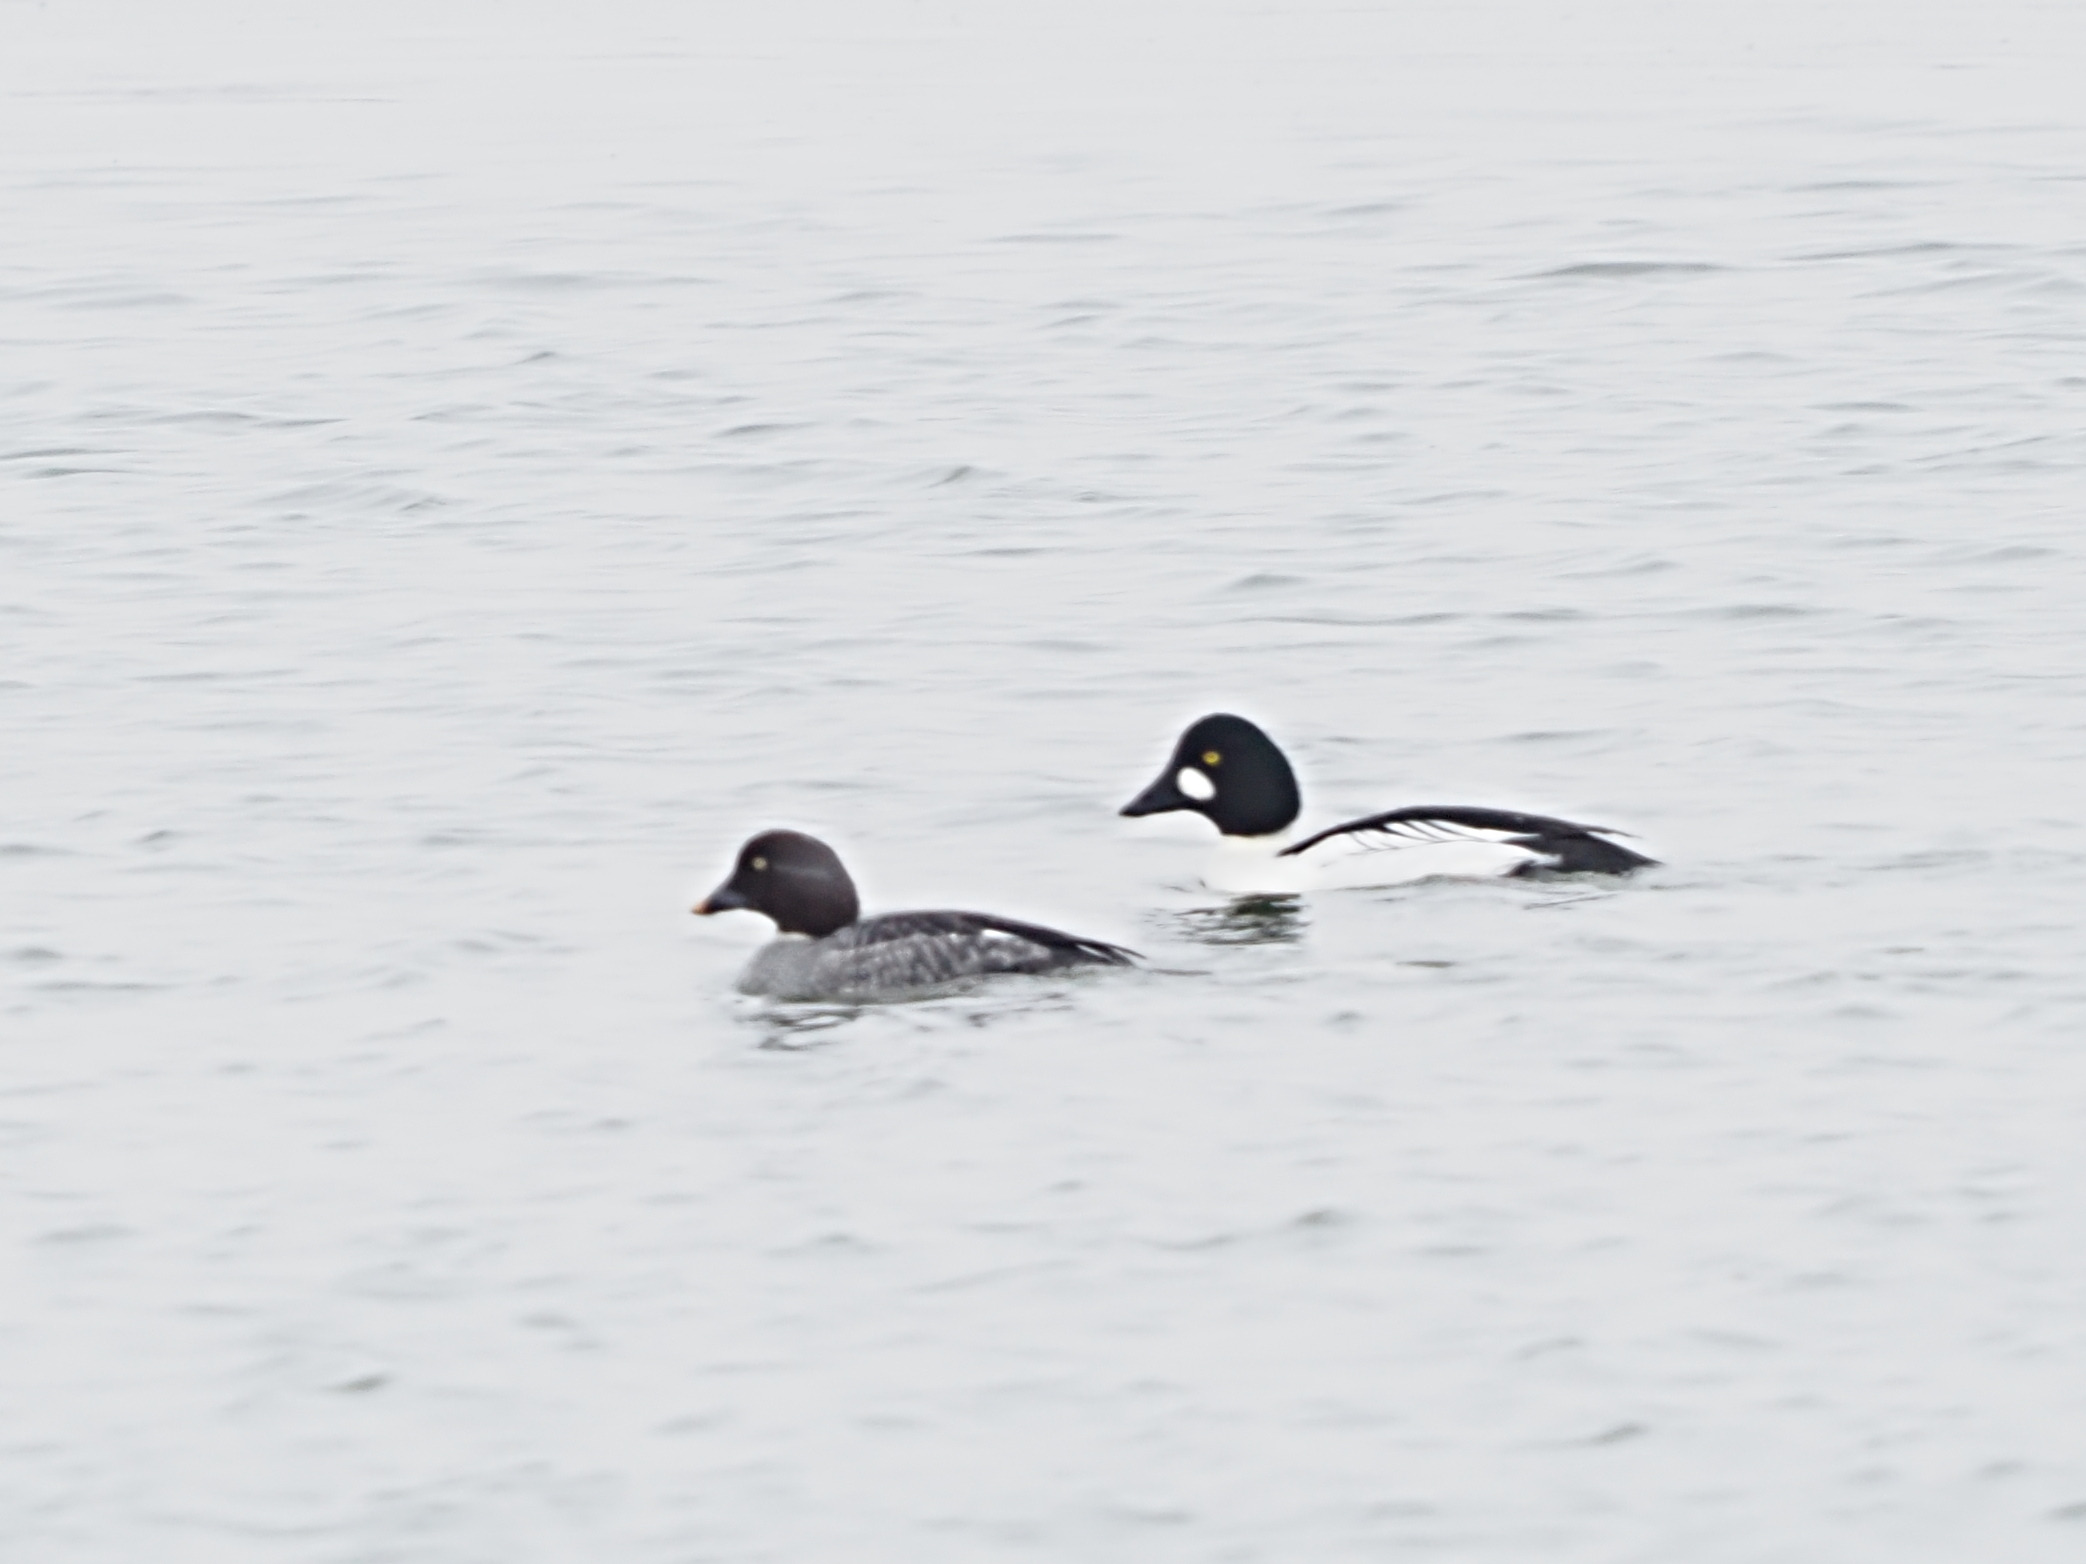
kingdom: Animalia
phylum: Chordata
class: Aves
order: Anseriformes
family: Anatidae
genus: Bucephala
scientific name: Bucephala clangula
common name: Hvinand
